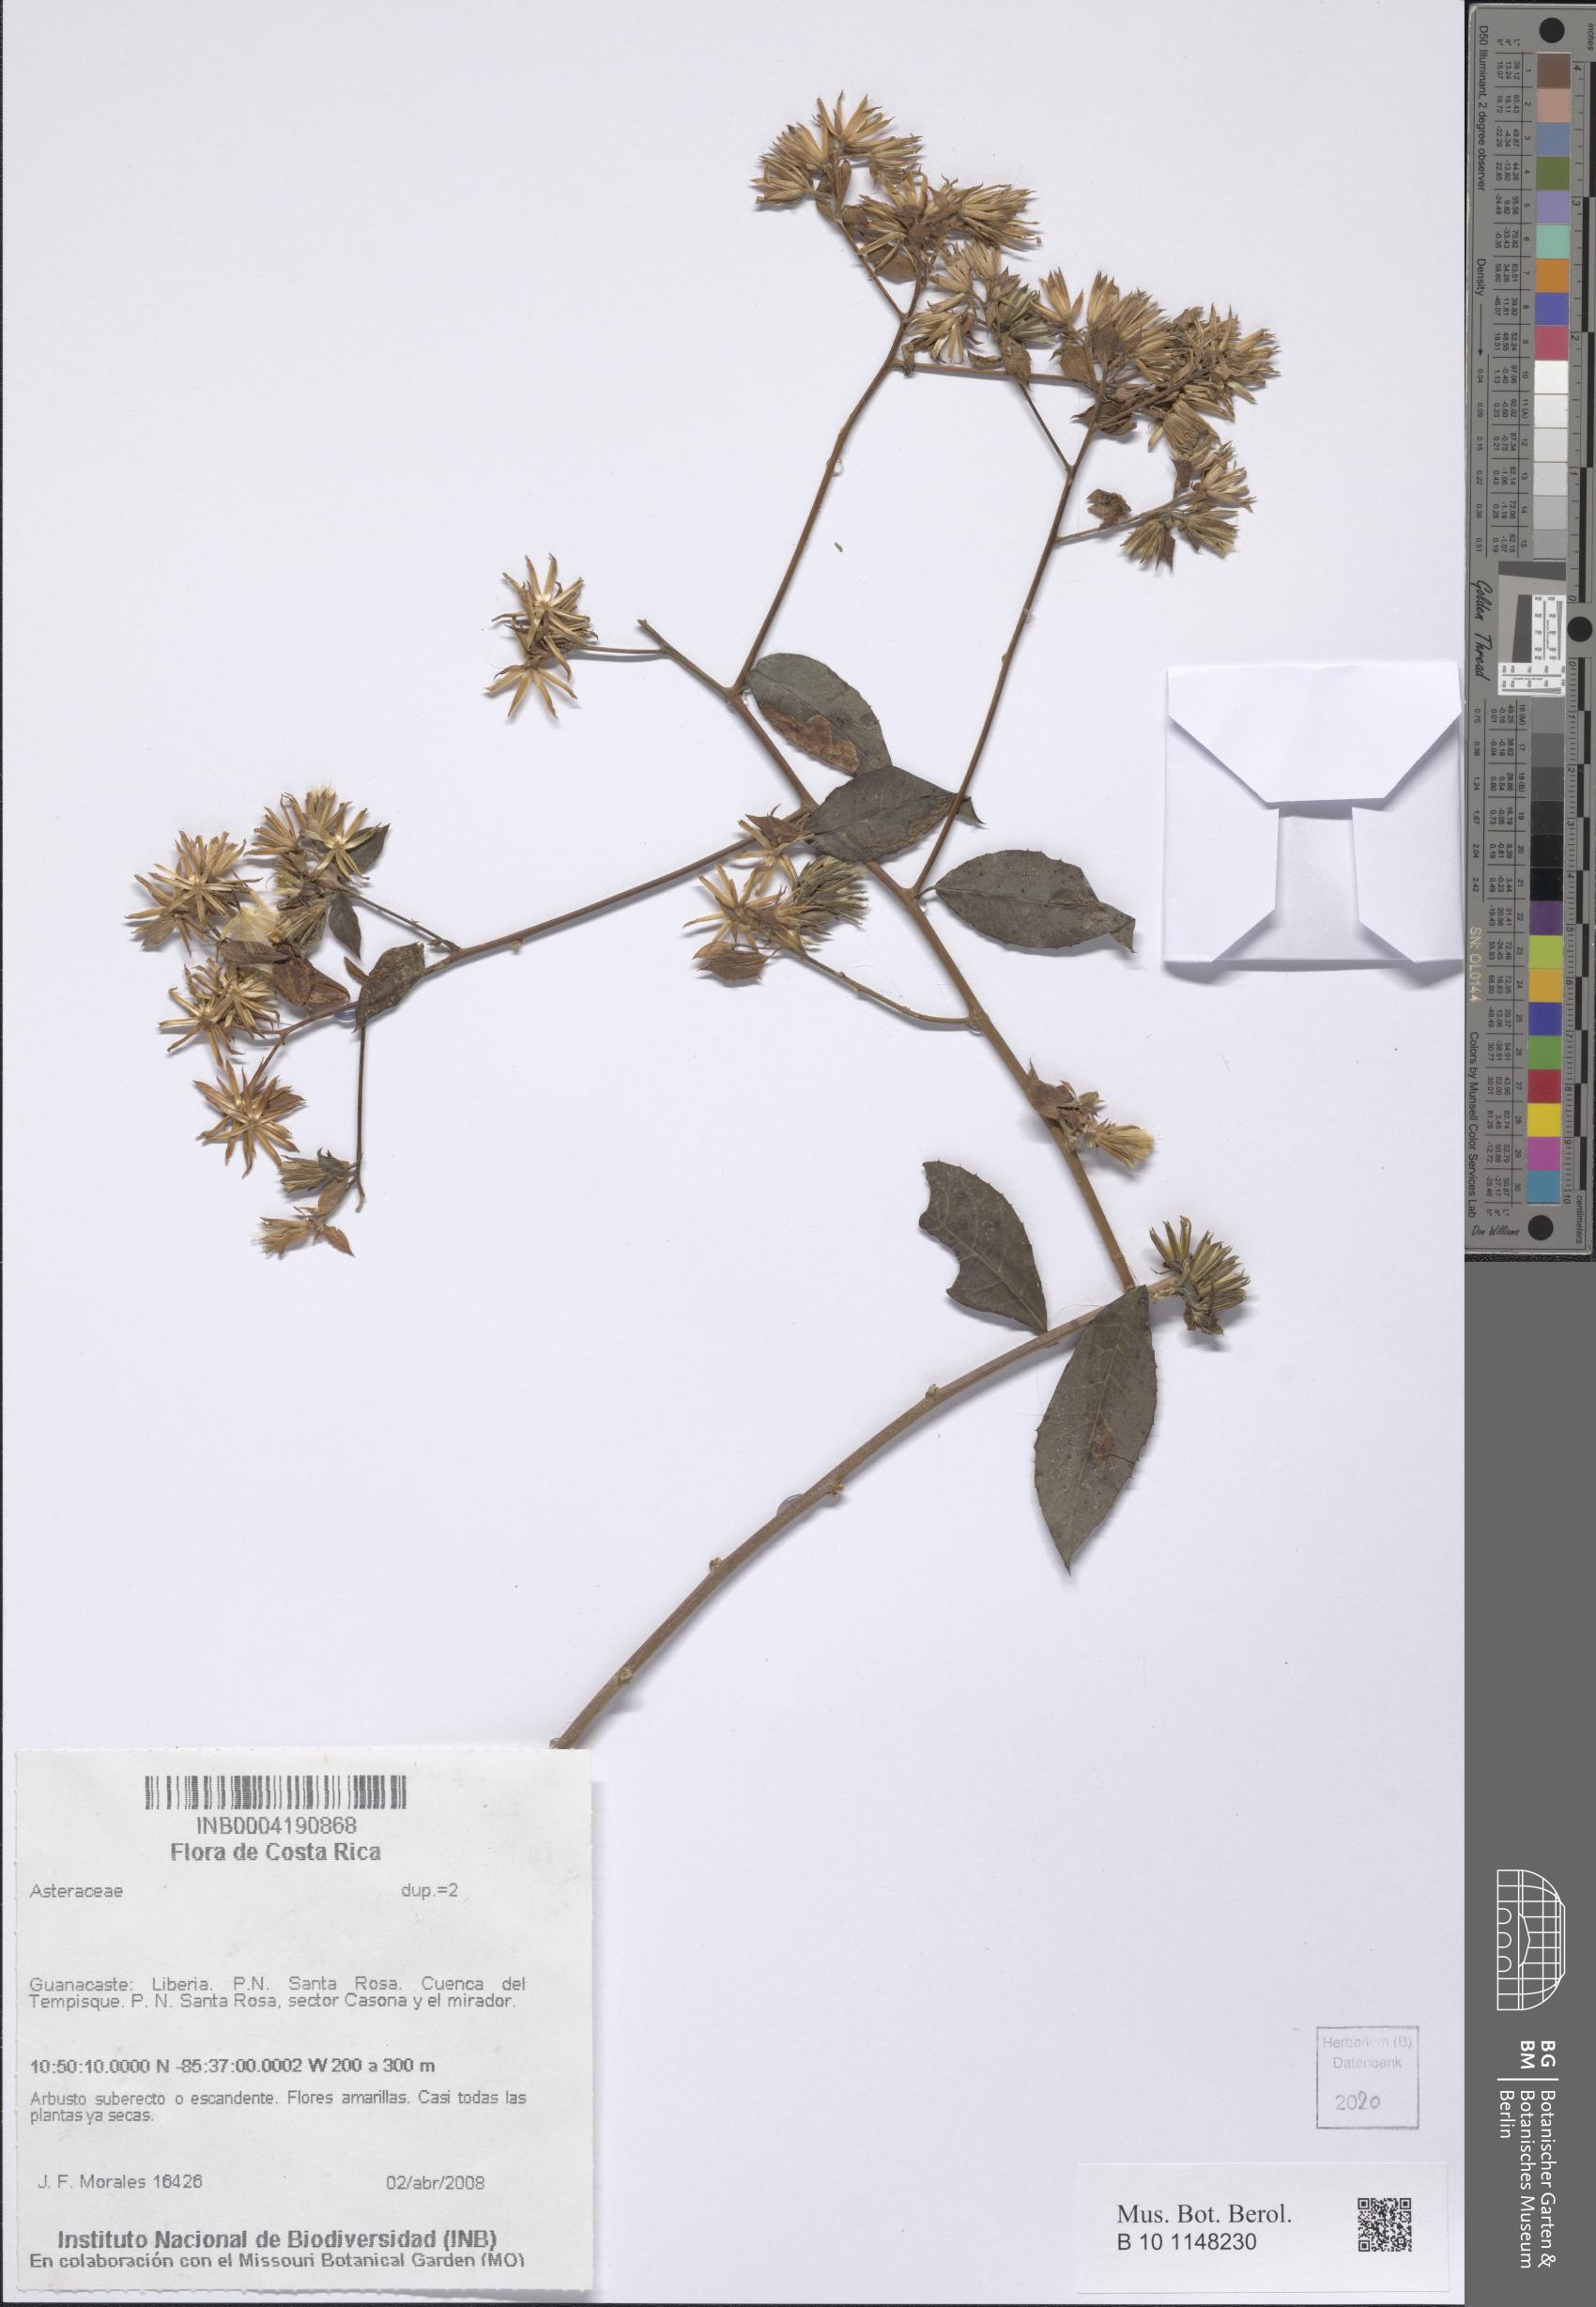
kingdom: Plantae
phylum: Tracheophyta
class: Magnoliopsida
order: Asterales
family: Asteraceae
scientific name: Asteraceae
